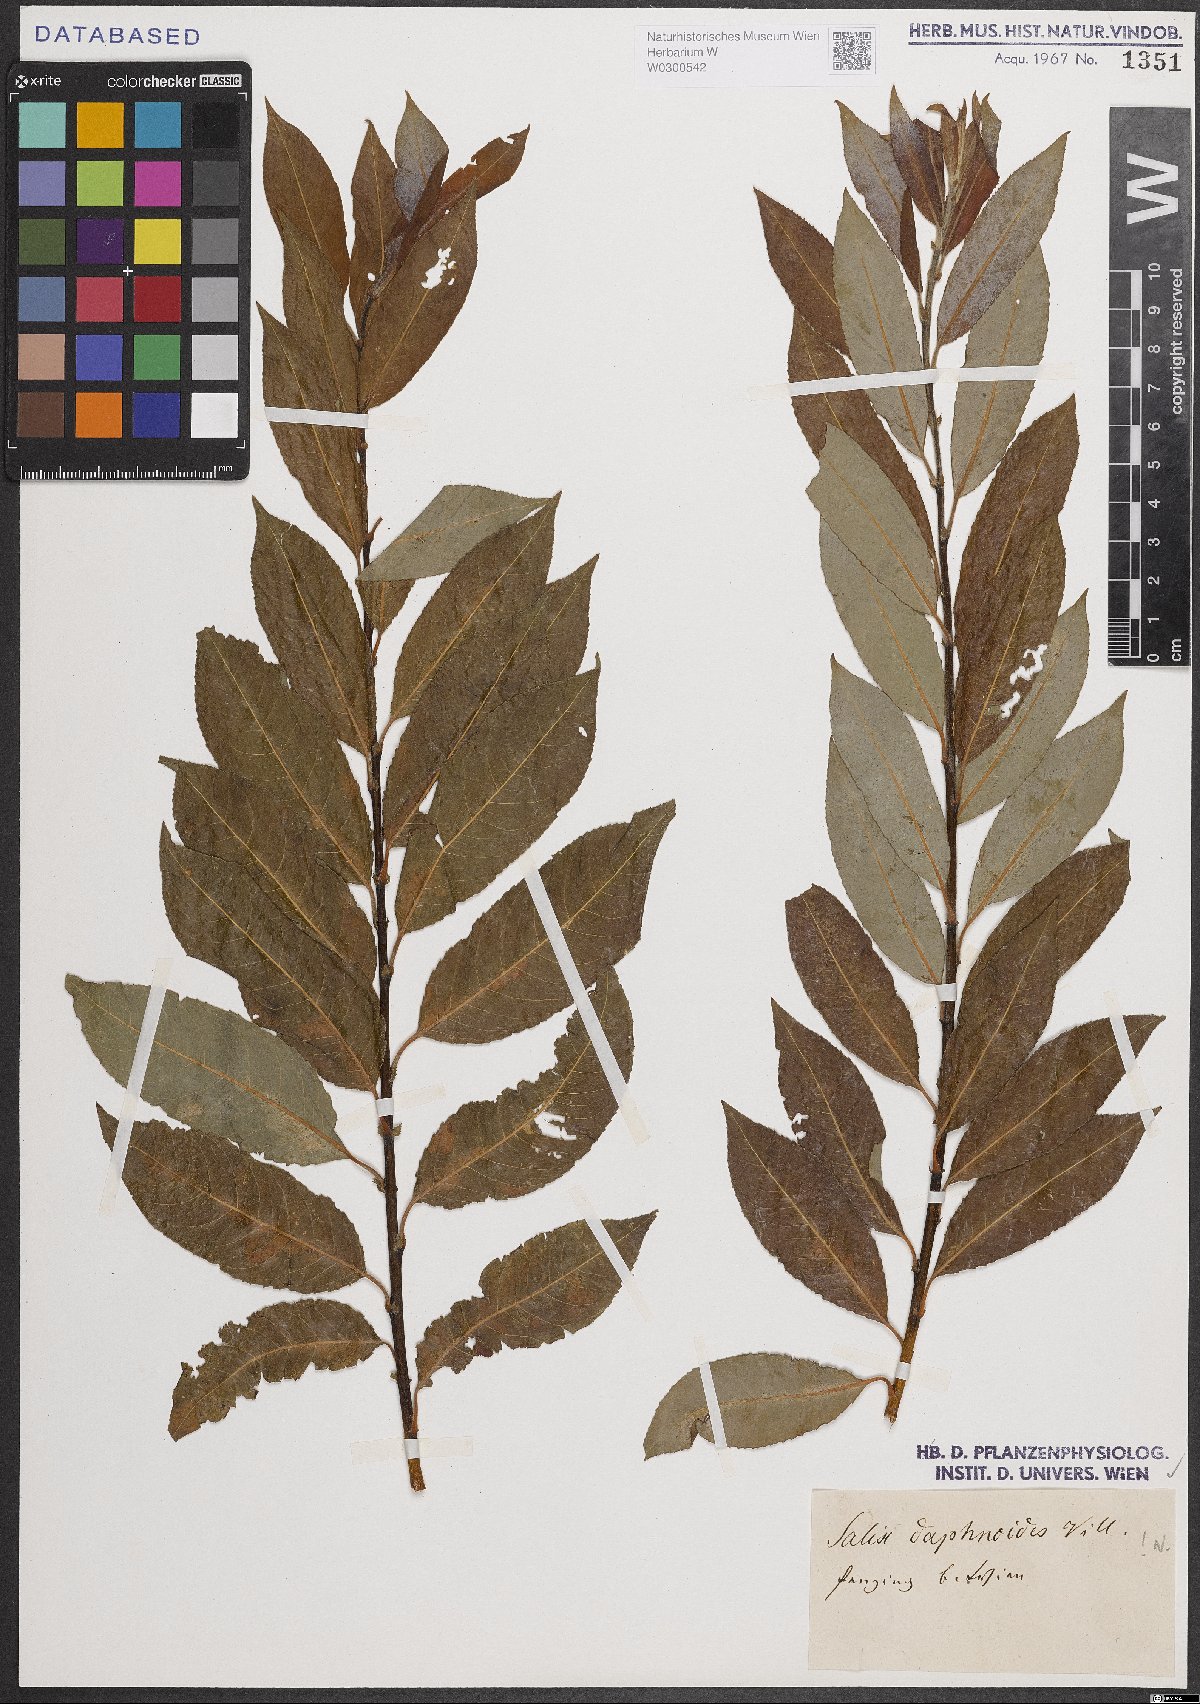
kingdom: Plantae
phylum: Tracheophyta
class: Magnoliopsida
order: Malpighiales
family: Salicaceae
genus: Salix
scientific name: Salix daphnoides
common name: European violet-willow
